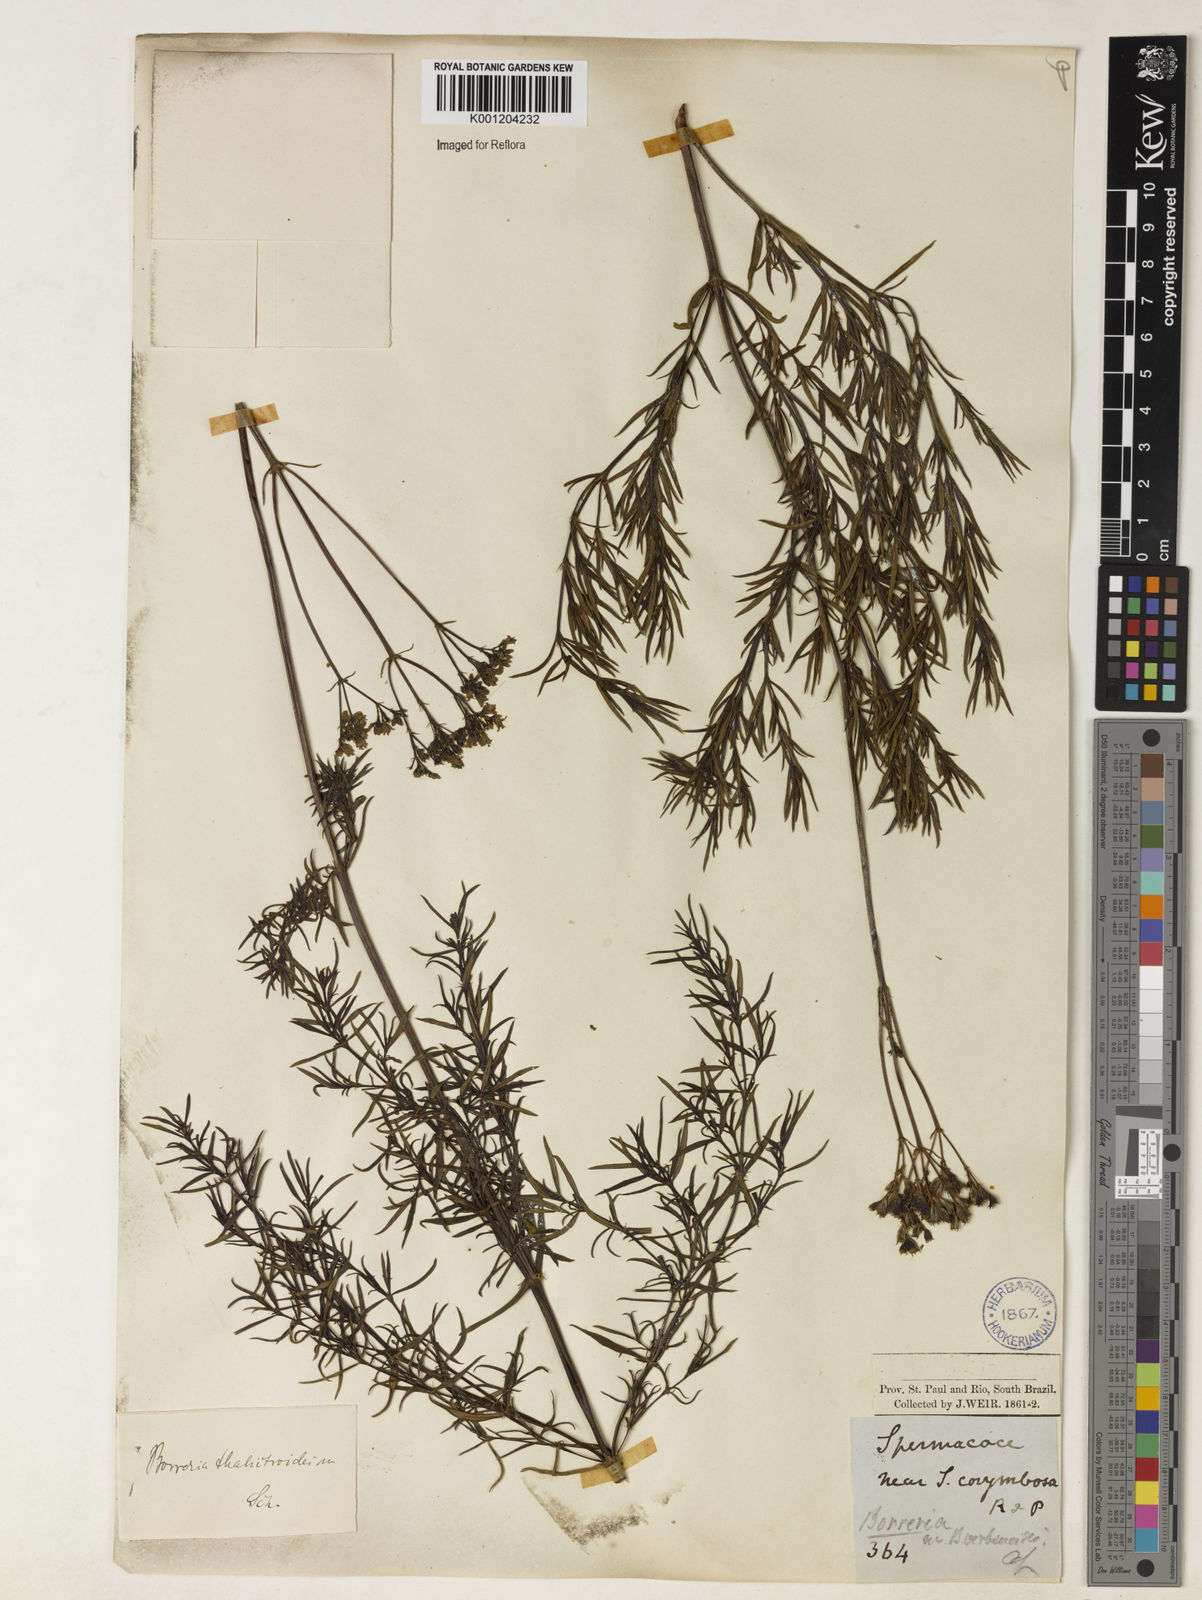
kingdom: Plantae
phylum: Tracheophyta
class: Magnoliopsida
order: Gentianales
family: Rubiaceae
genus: Galianthe
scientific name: Galianthe thalictroides
